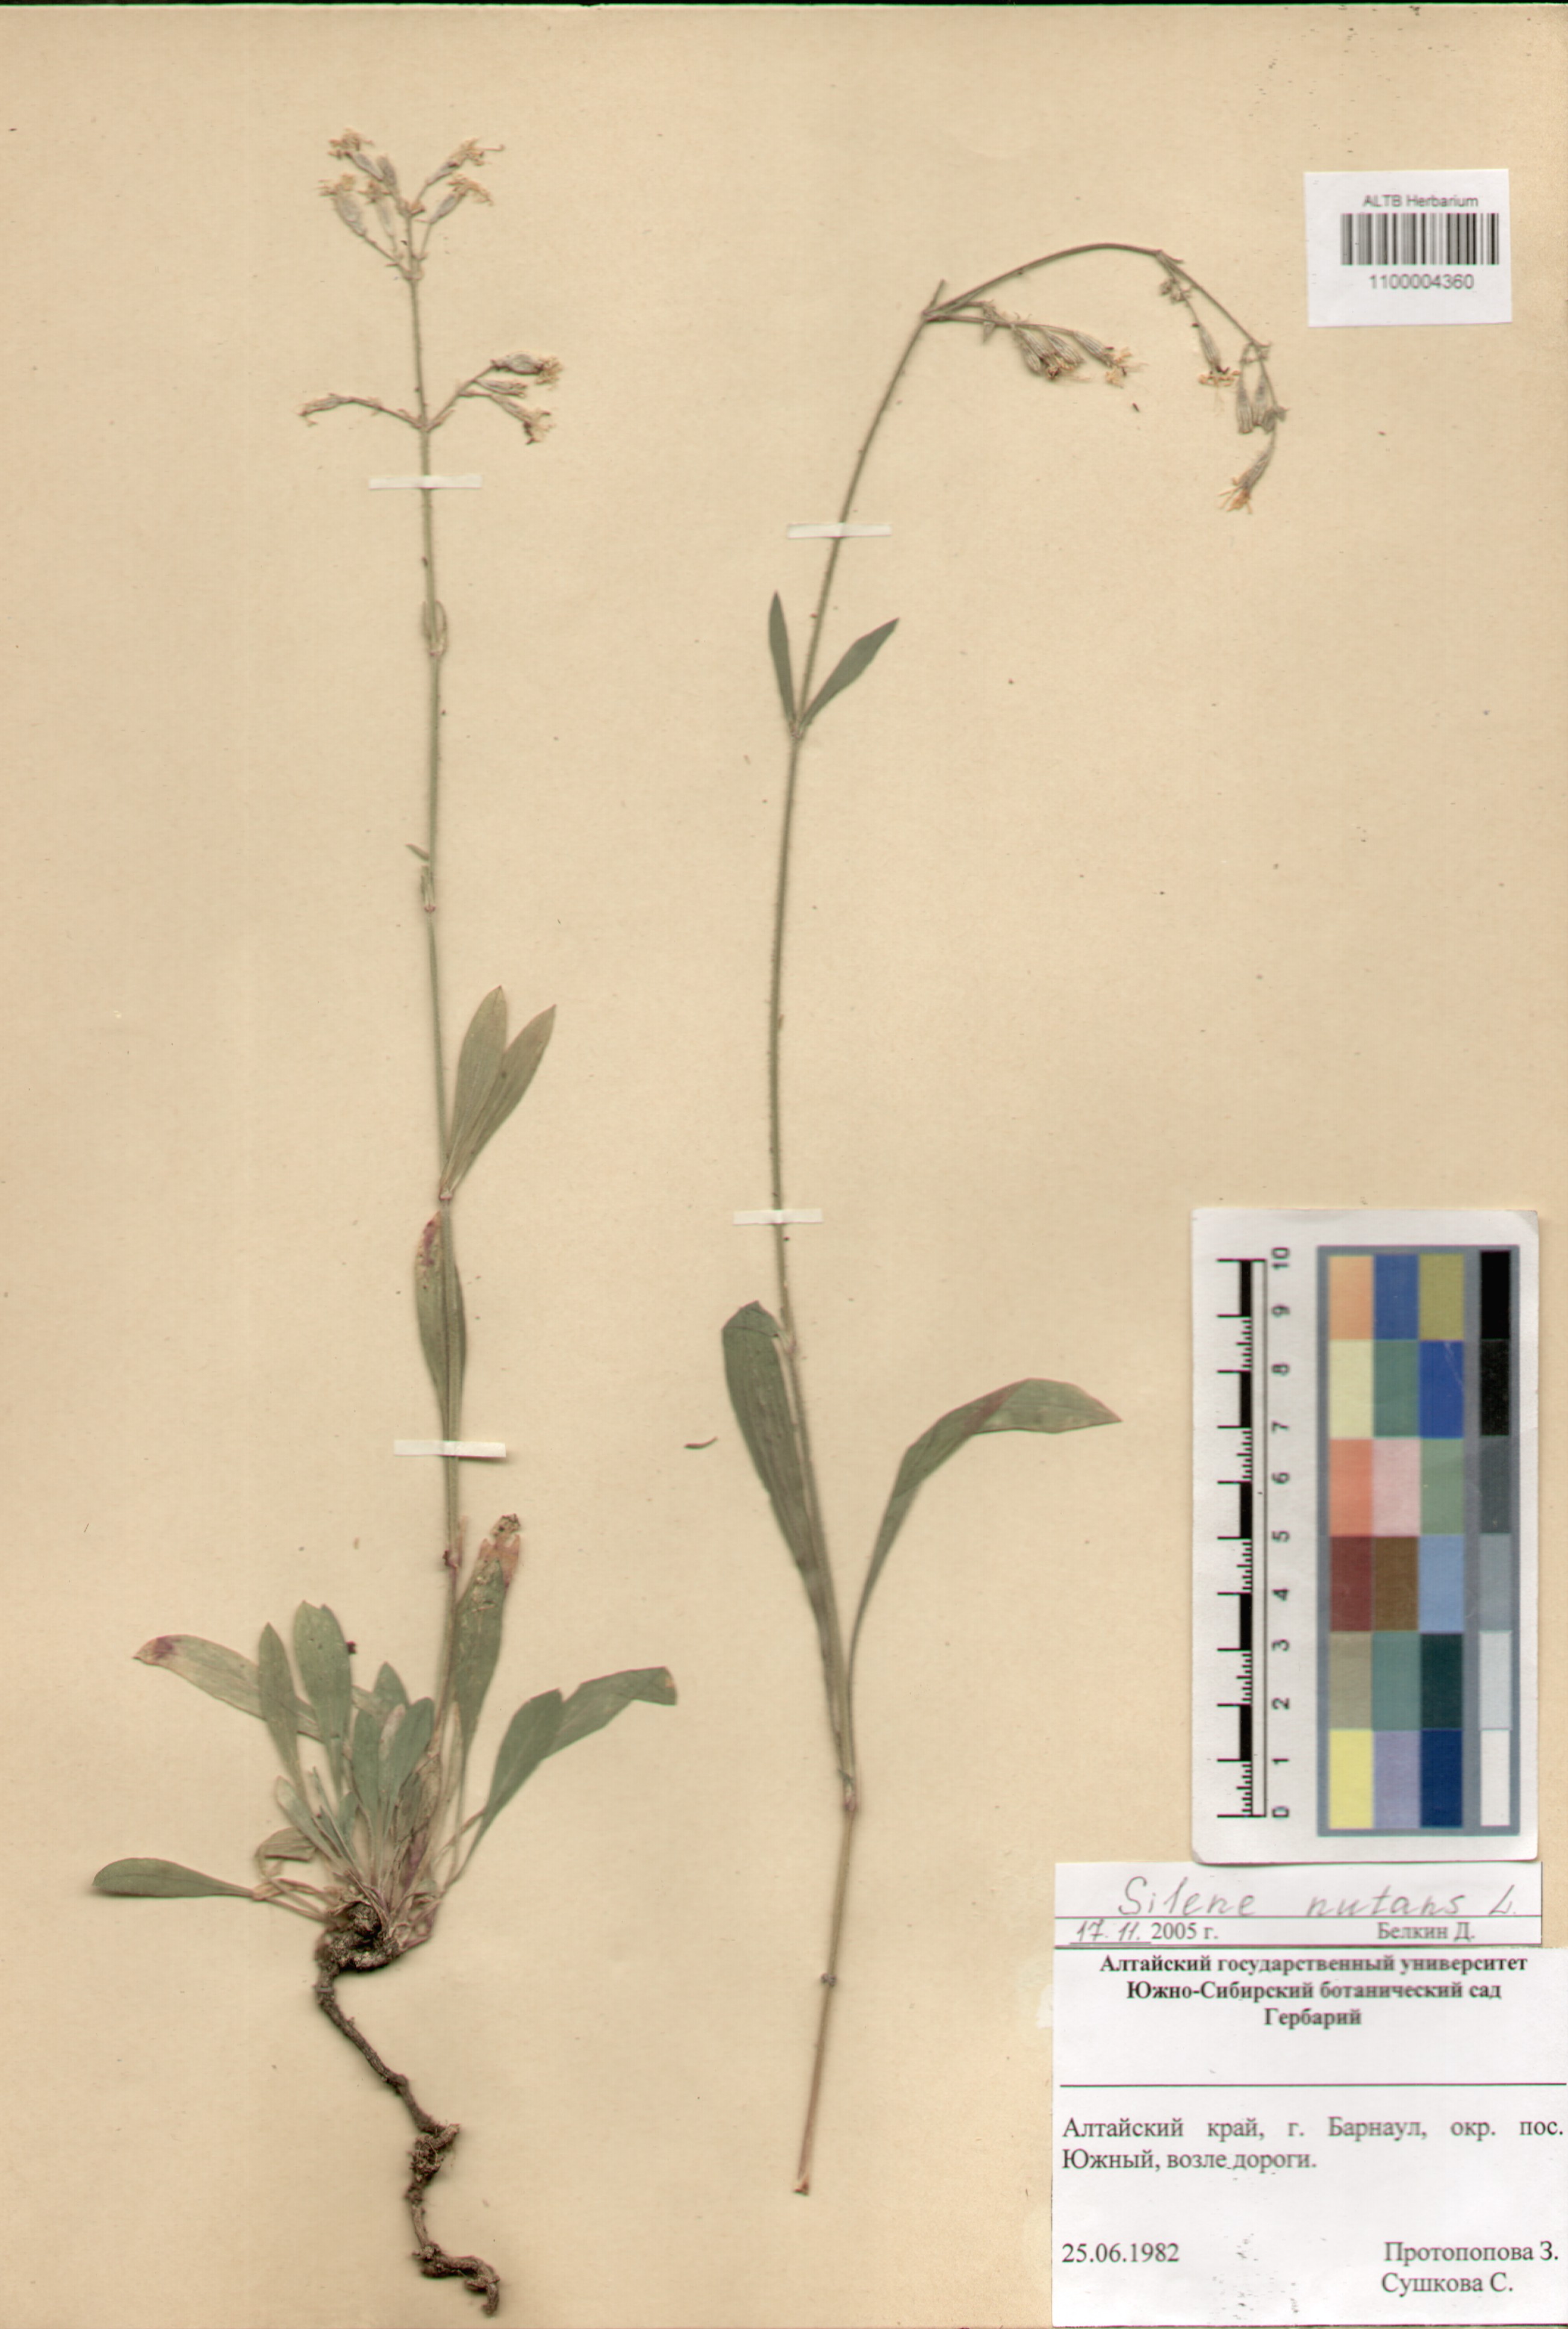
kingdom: Plantae
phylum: Tracheophyta
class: Magnoliopsida
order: Caryophyllales
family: Caryophyllaceae
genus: Silene
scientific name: Silene nutans
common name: Nottingham catchfly
